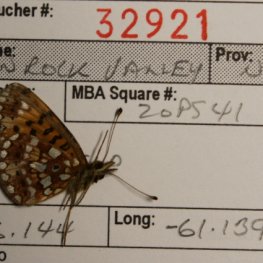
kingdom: Animalia
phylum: Arthropoda
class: Insecta
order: Lepidoptera
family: Nymphalidae
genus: Boloria
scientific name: Boloria selene
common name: Silver-bordered Fritillary
